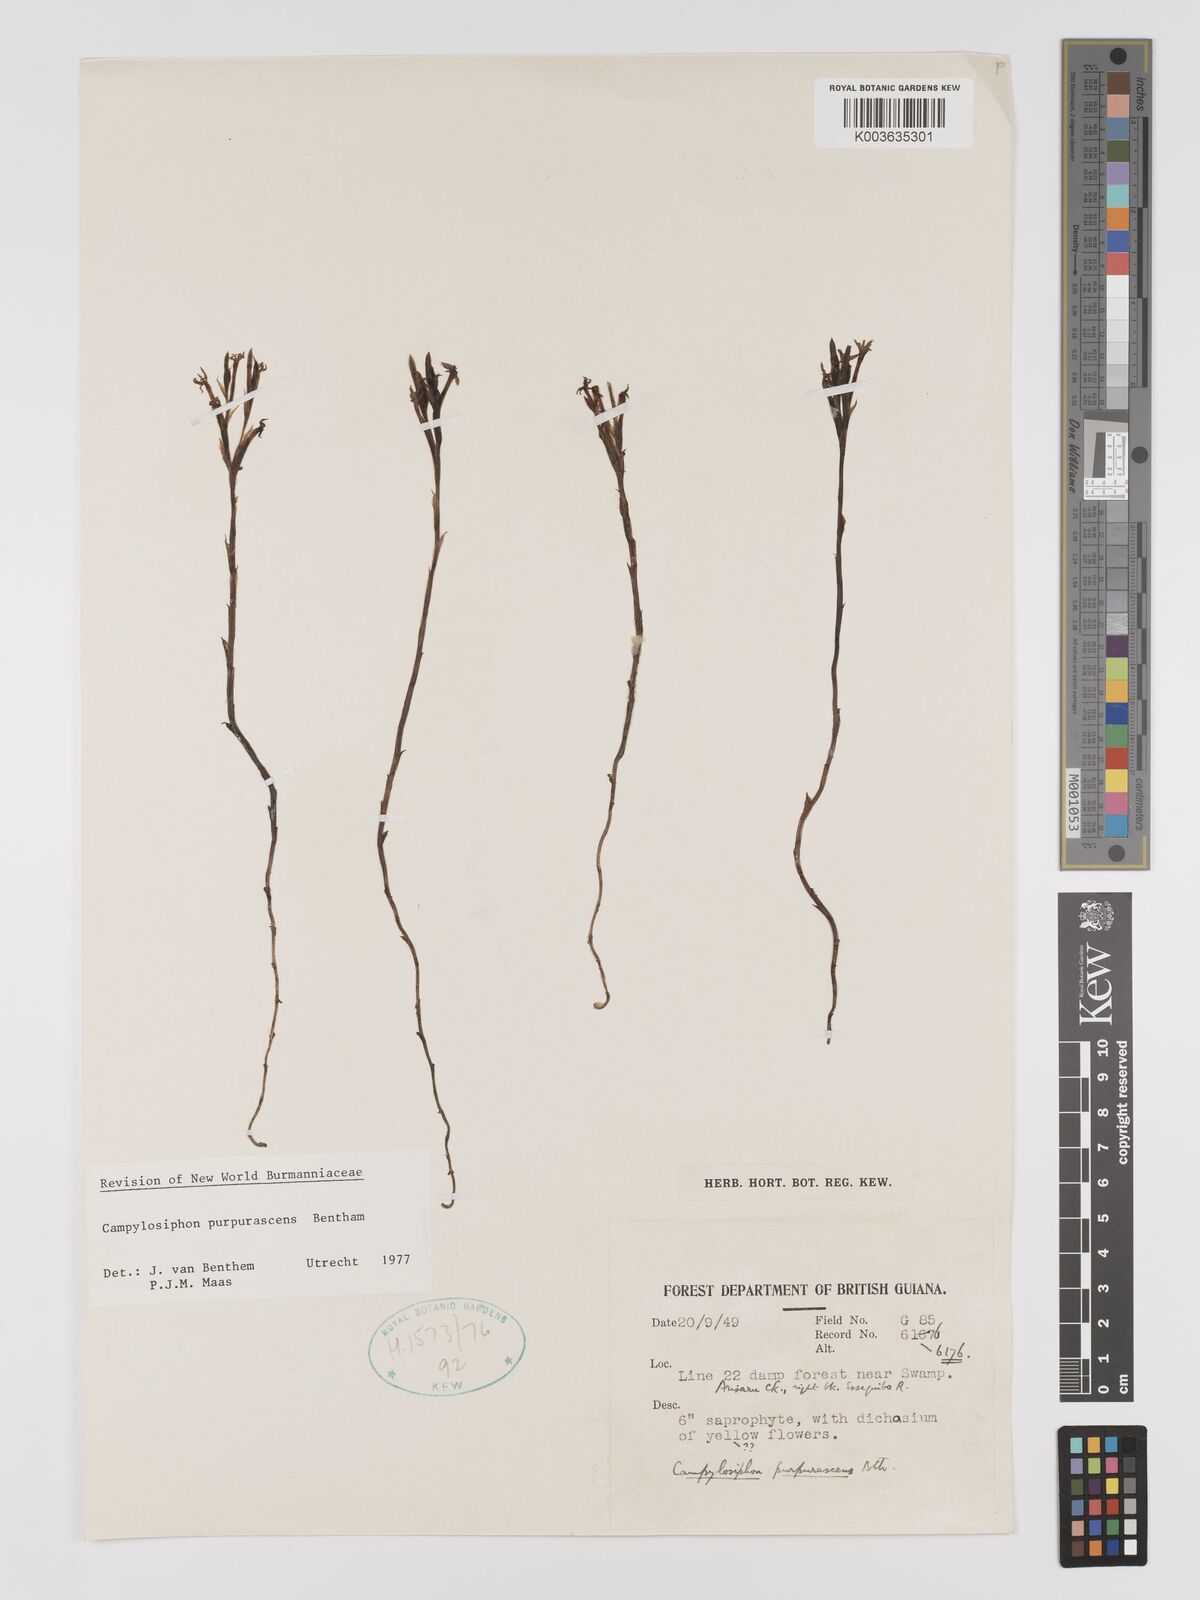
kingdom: Plantae
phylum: Tracheophyta
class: Liliopsida
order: Dioscoreales
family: Burmanniaceae
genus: Campylosiphon
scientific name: Campylosiphon purpurascens
